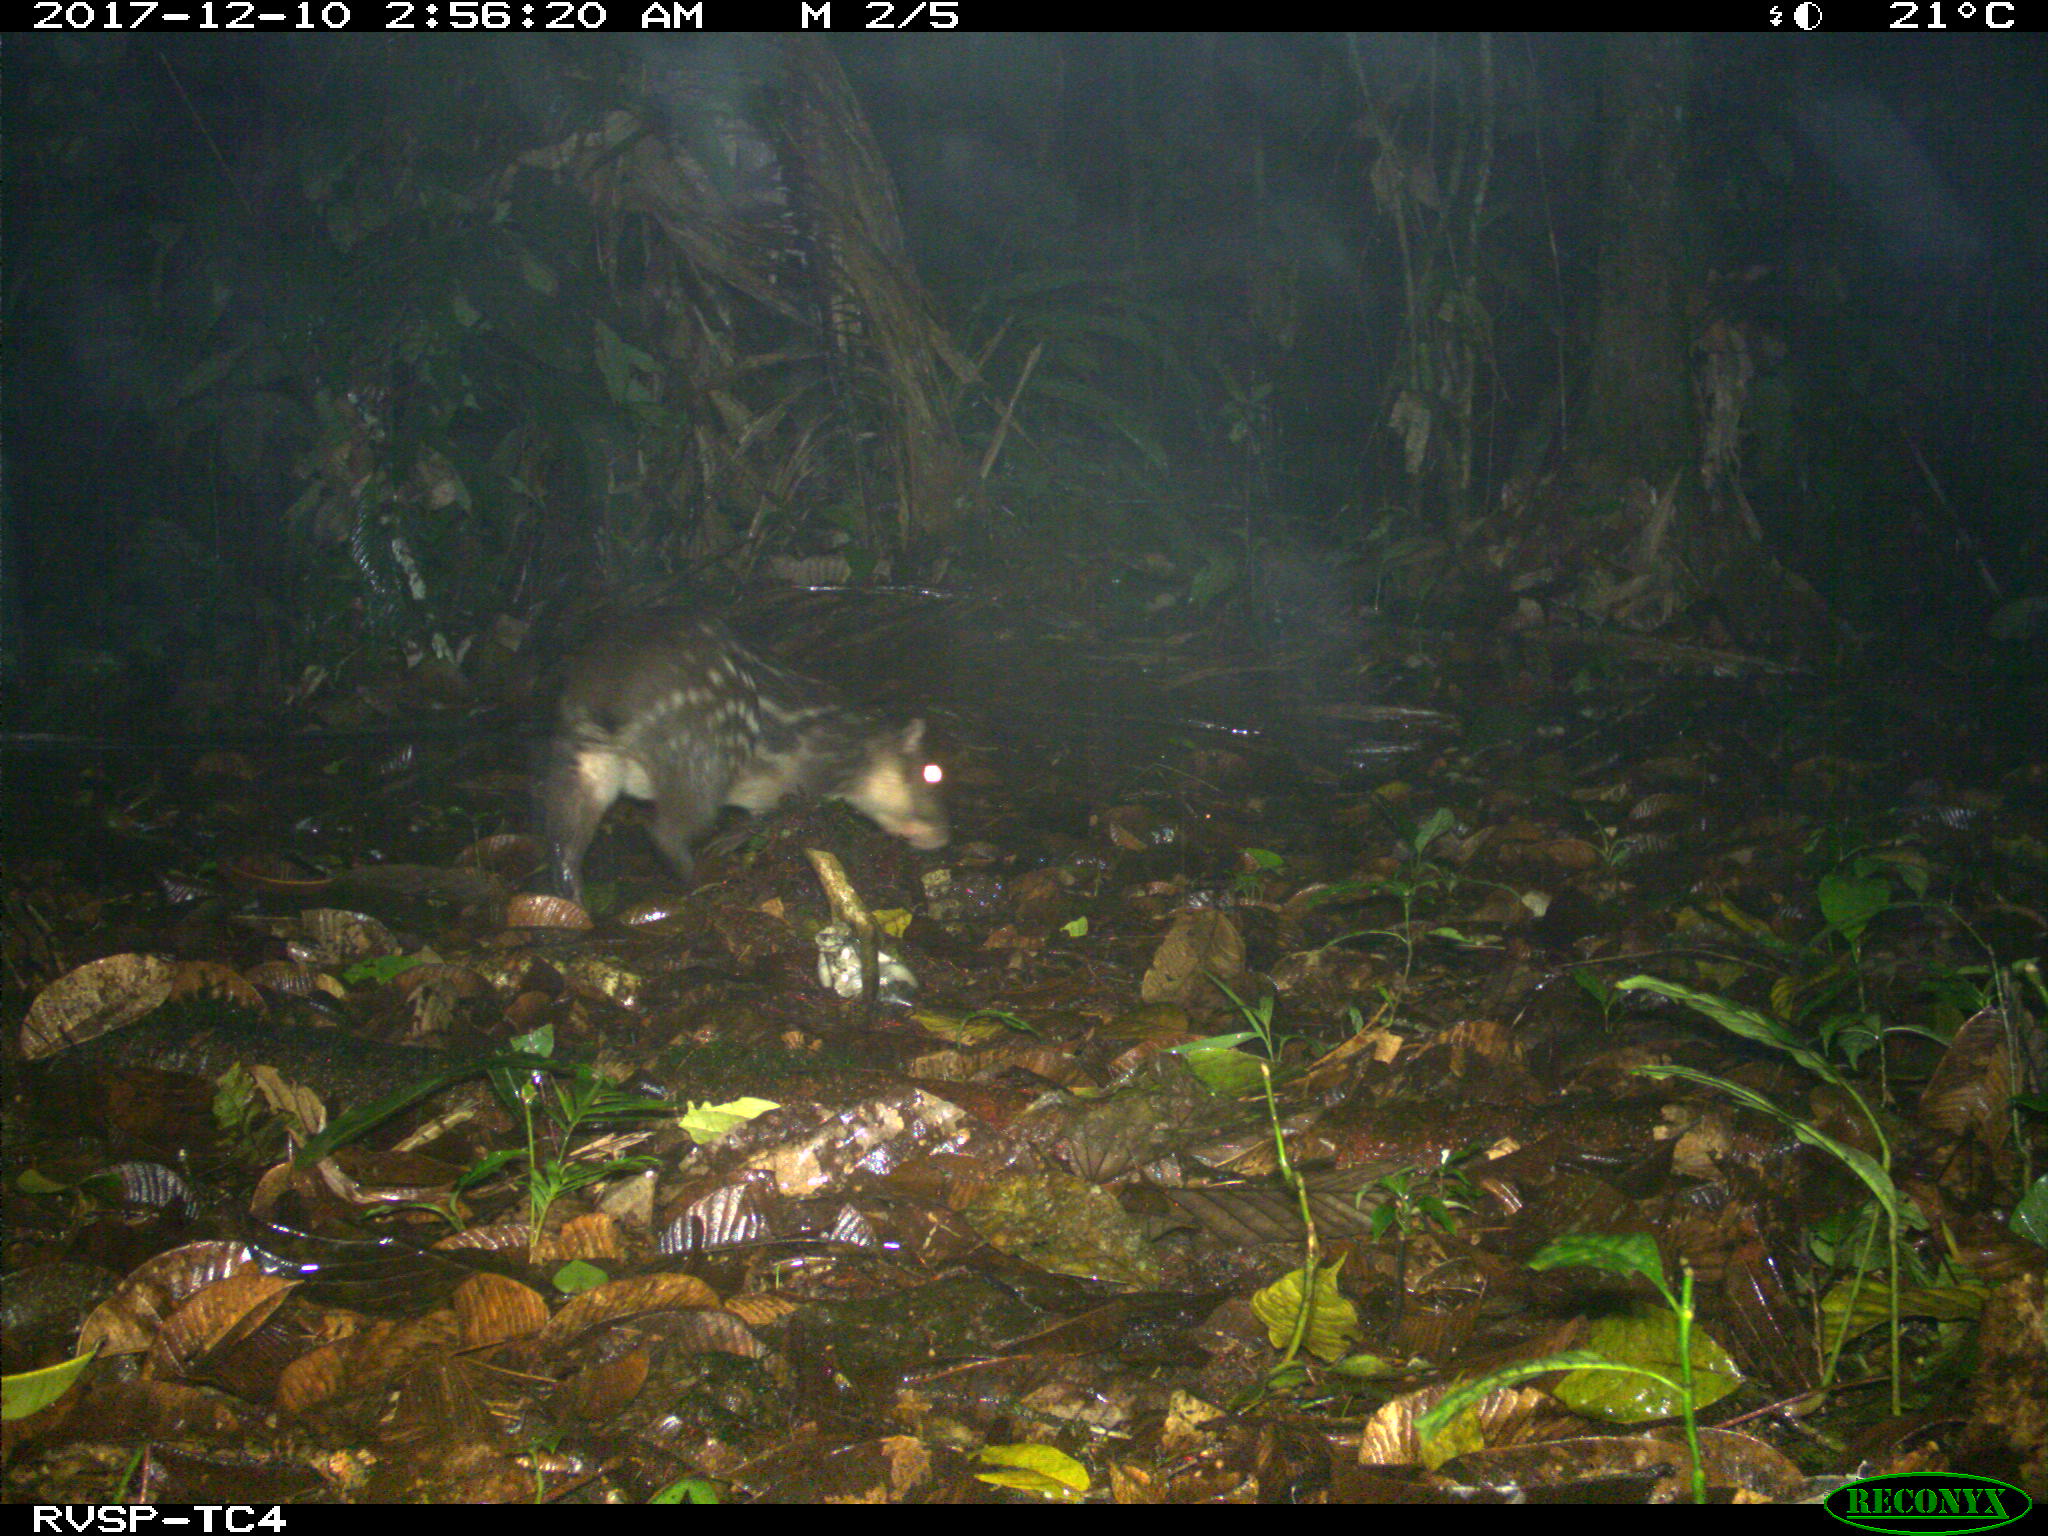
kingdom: Animalia
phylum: Chordata
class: Mammalia
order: Rodentia
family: Cuniculidae
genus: Cuniculus
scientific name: Cuniculus paca
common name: Lowland paca
